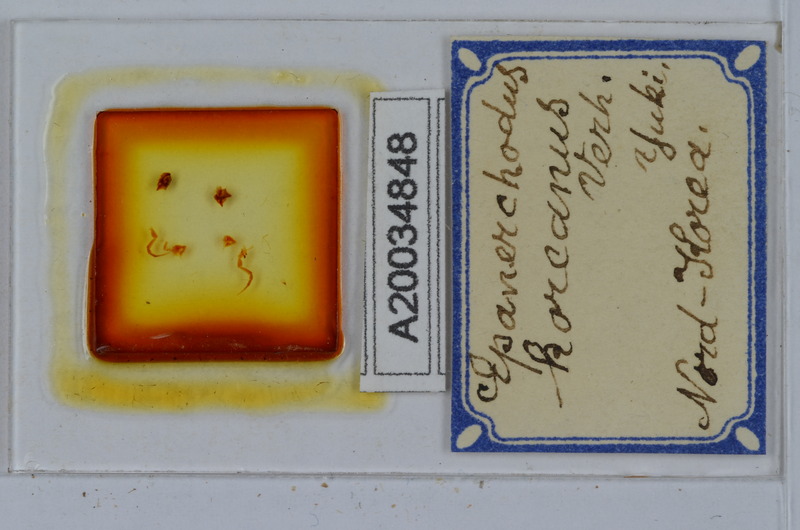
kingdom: Animalia
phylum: Arthropoda
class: Diplopoda
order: Polydesmida
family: Polydesmidae
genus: Epanerchodus
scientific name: Epanerchodus koreanus
